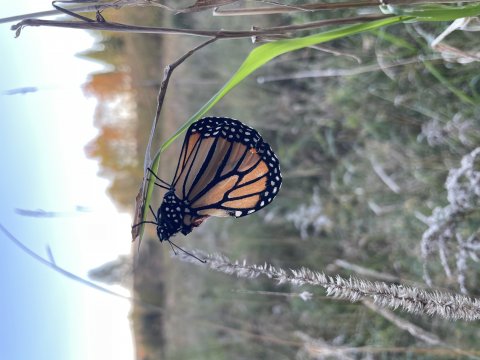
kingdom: Animalia
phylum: Arthropoda
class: Insecta
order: Lepidoptera
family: Nymphalidae
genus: Danaus
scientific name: Danaus plexippus
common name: Monarch
